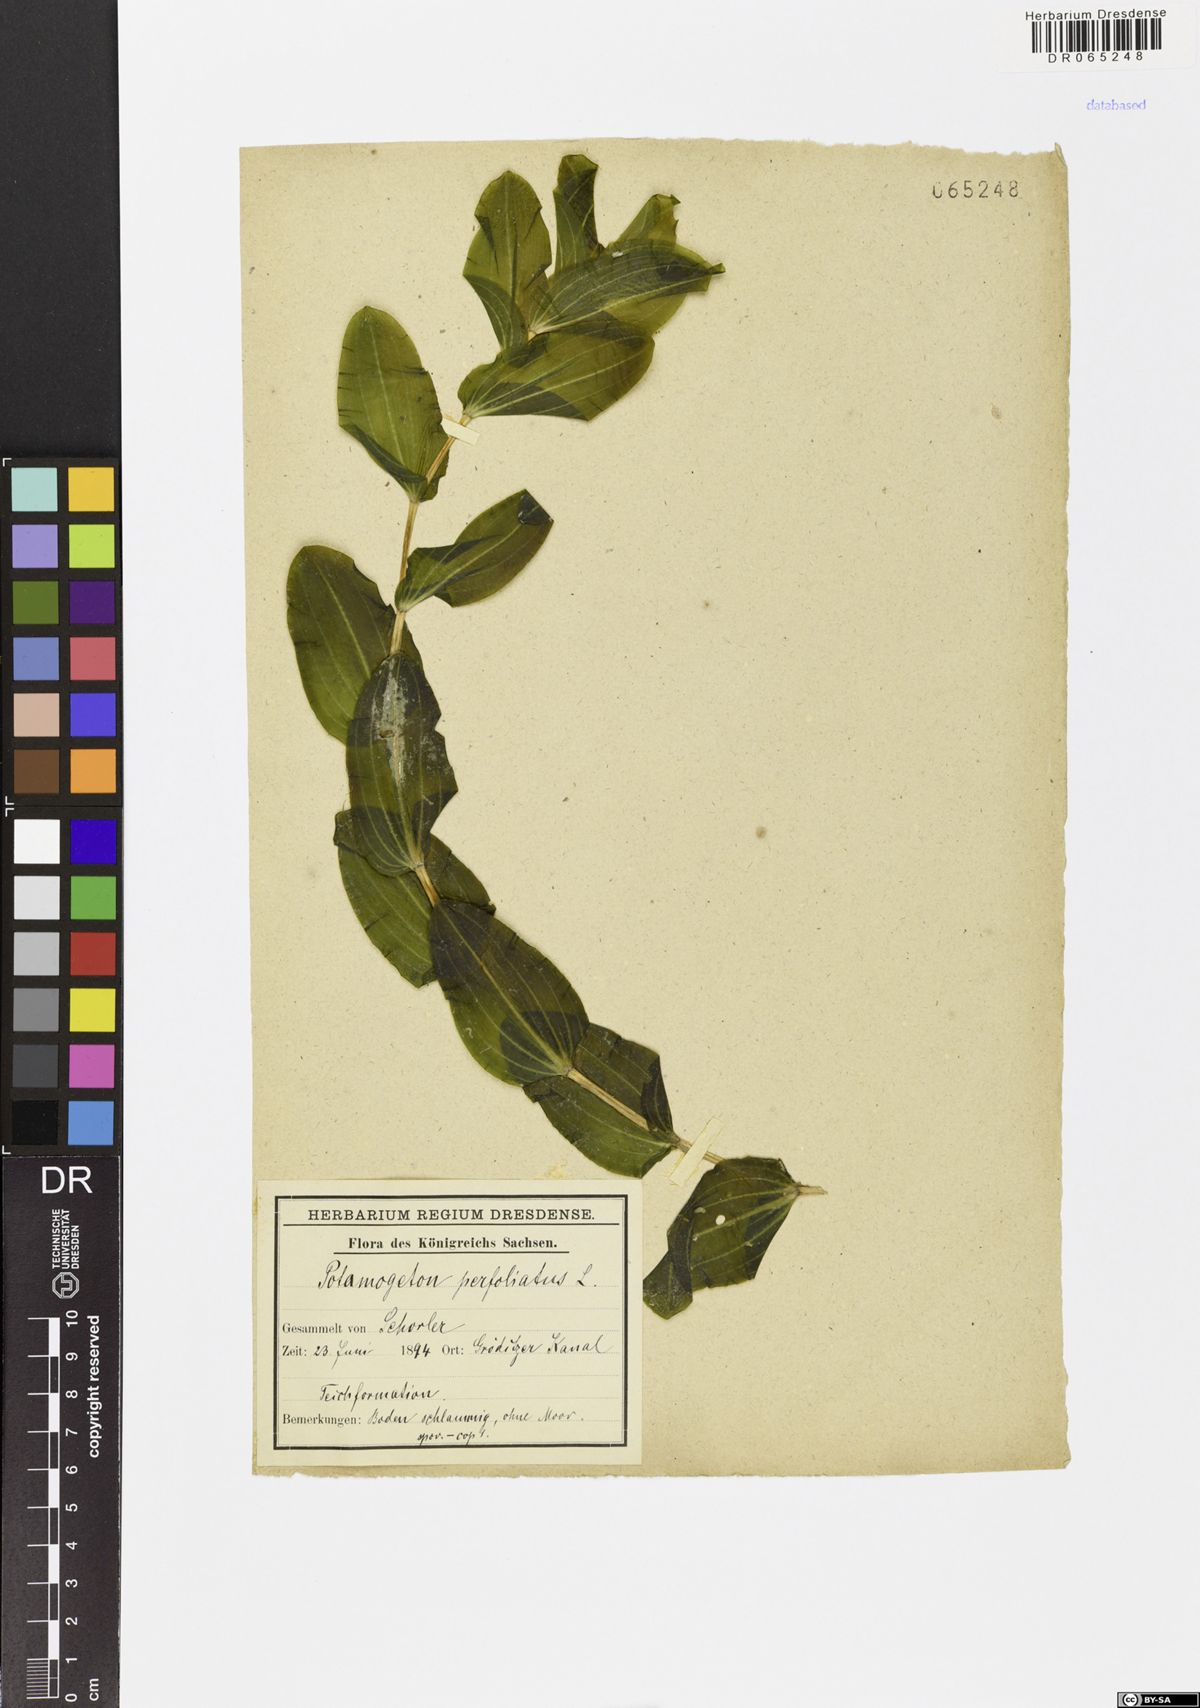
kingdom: Plantae
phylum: Tracheophyta
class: Liliopsida
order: Alismatales
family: Potamogetonaceae
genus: Potamogeton
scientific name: Potamogeton perfoliatus
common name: Perfoliate pondweed
